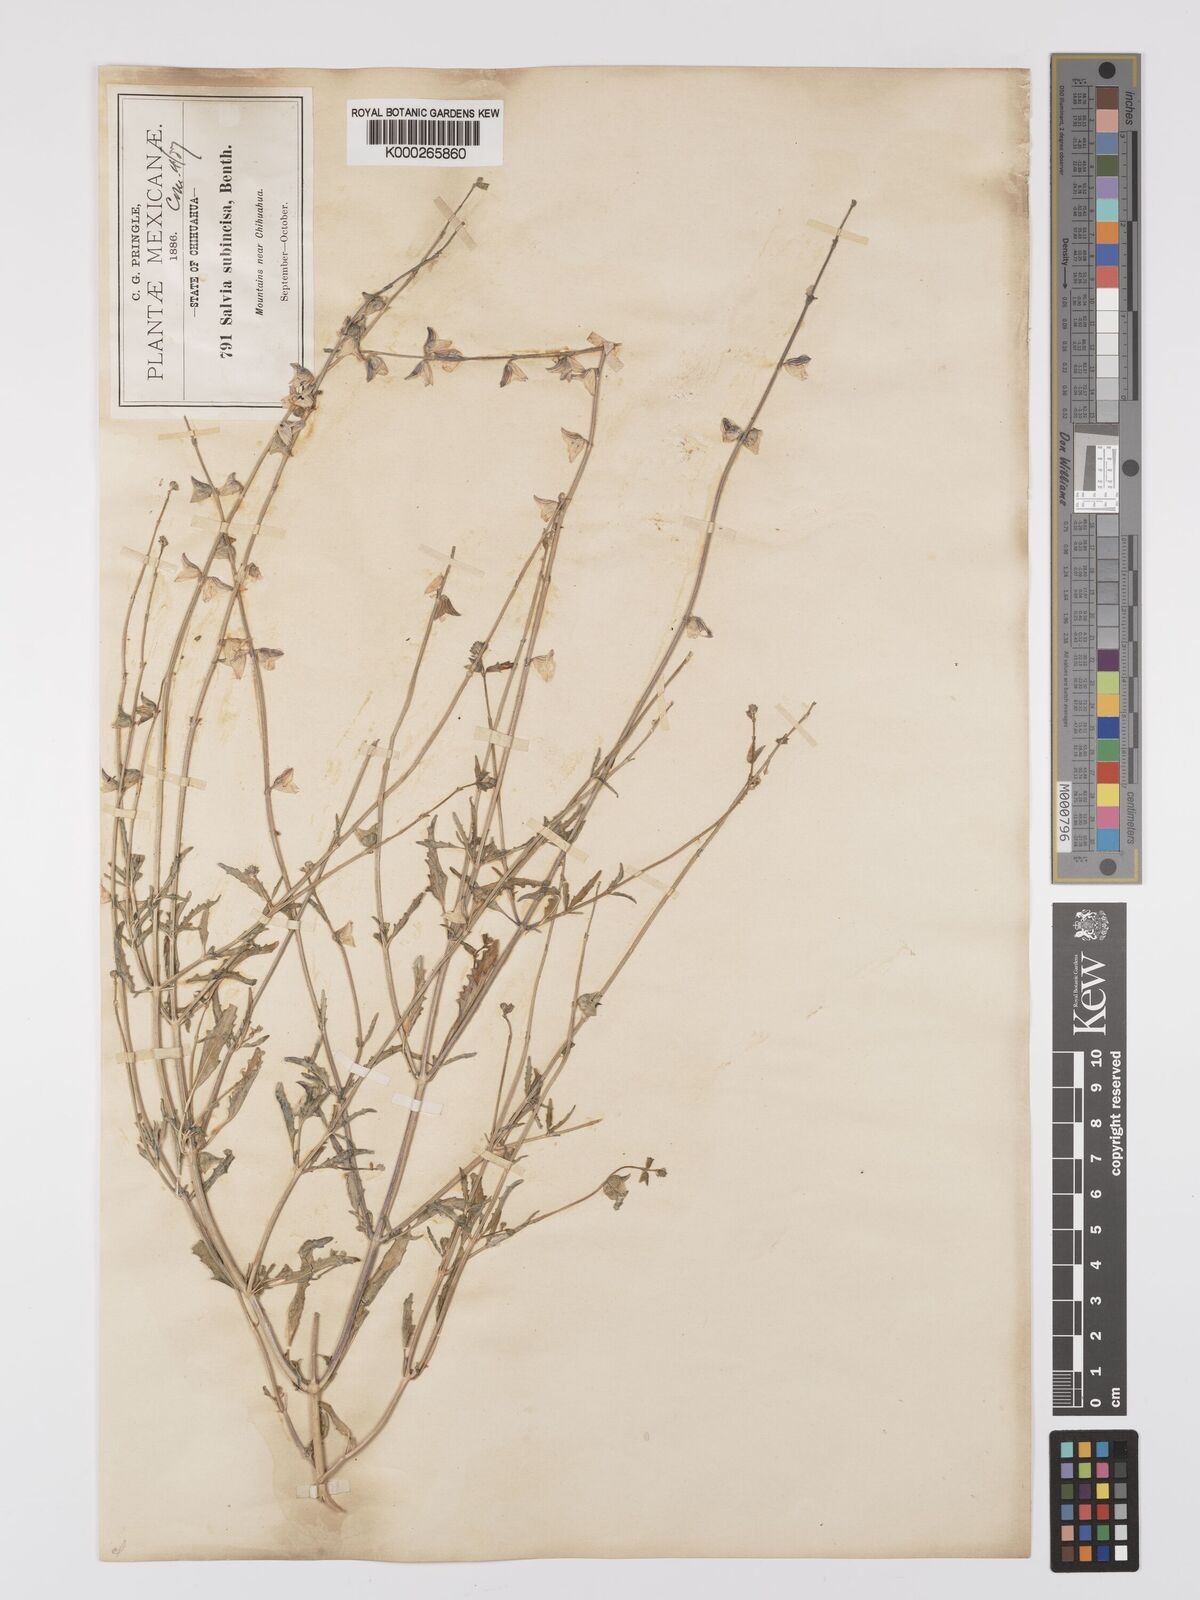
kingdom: Plantae
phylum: Tracheophyta
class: Magnoliopsida
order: Lamiales
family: Lamiaceae
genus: Salvia
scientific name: Salvia subincisa
